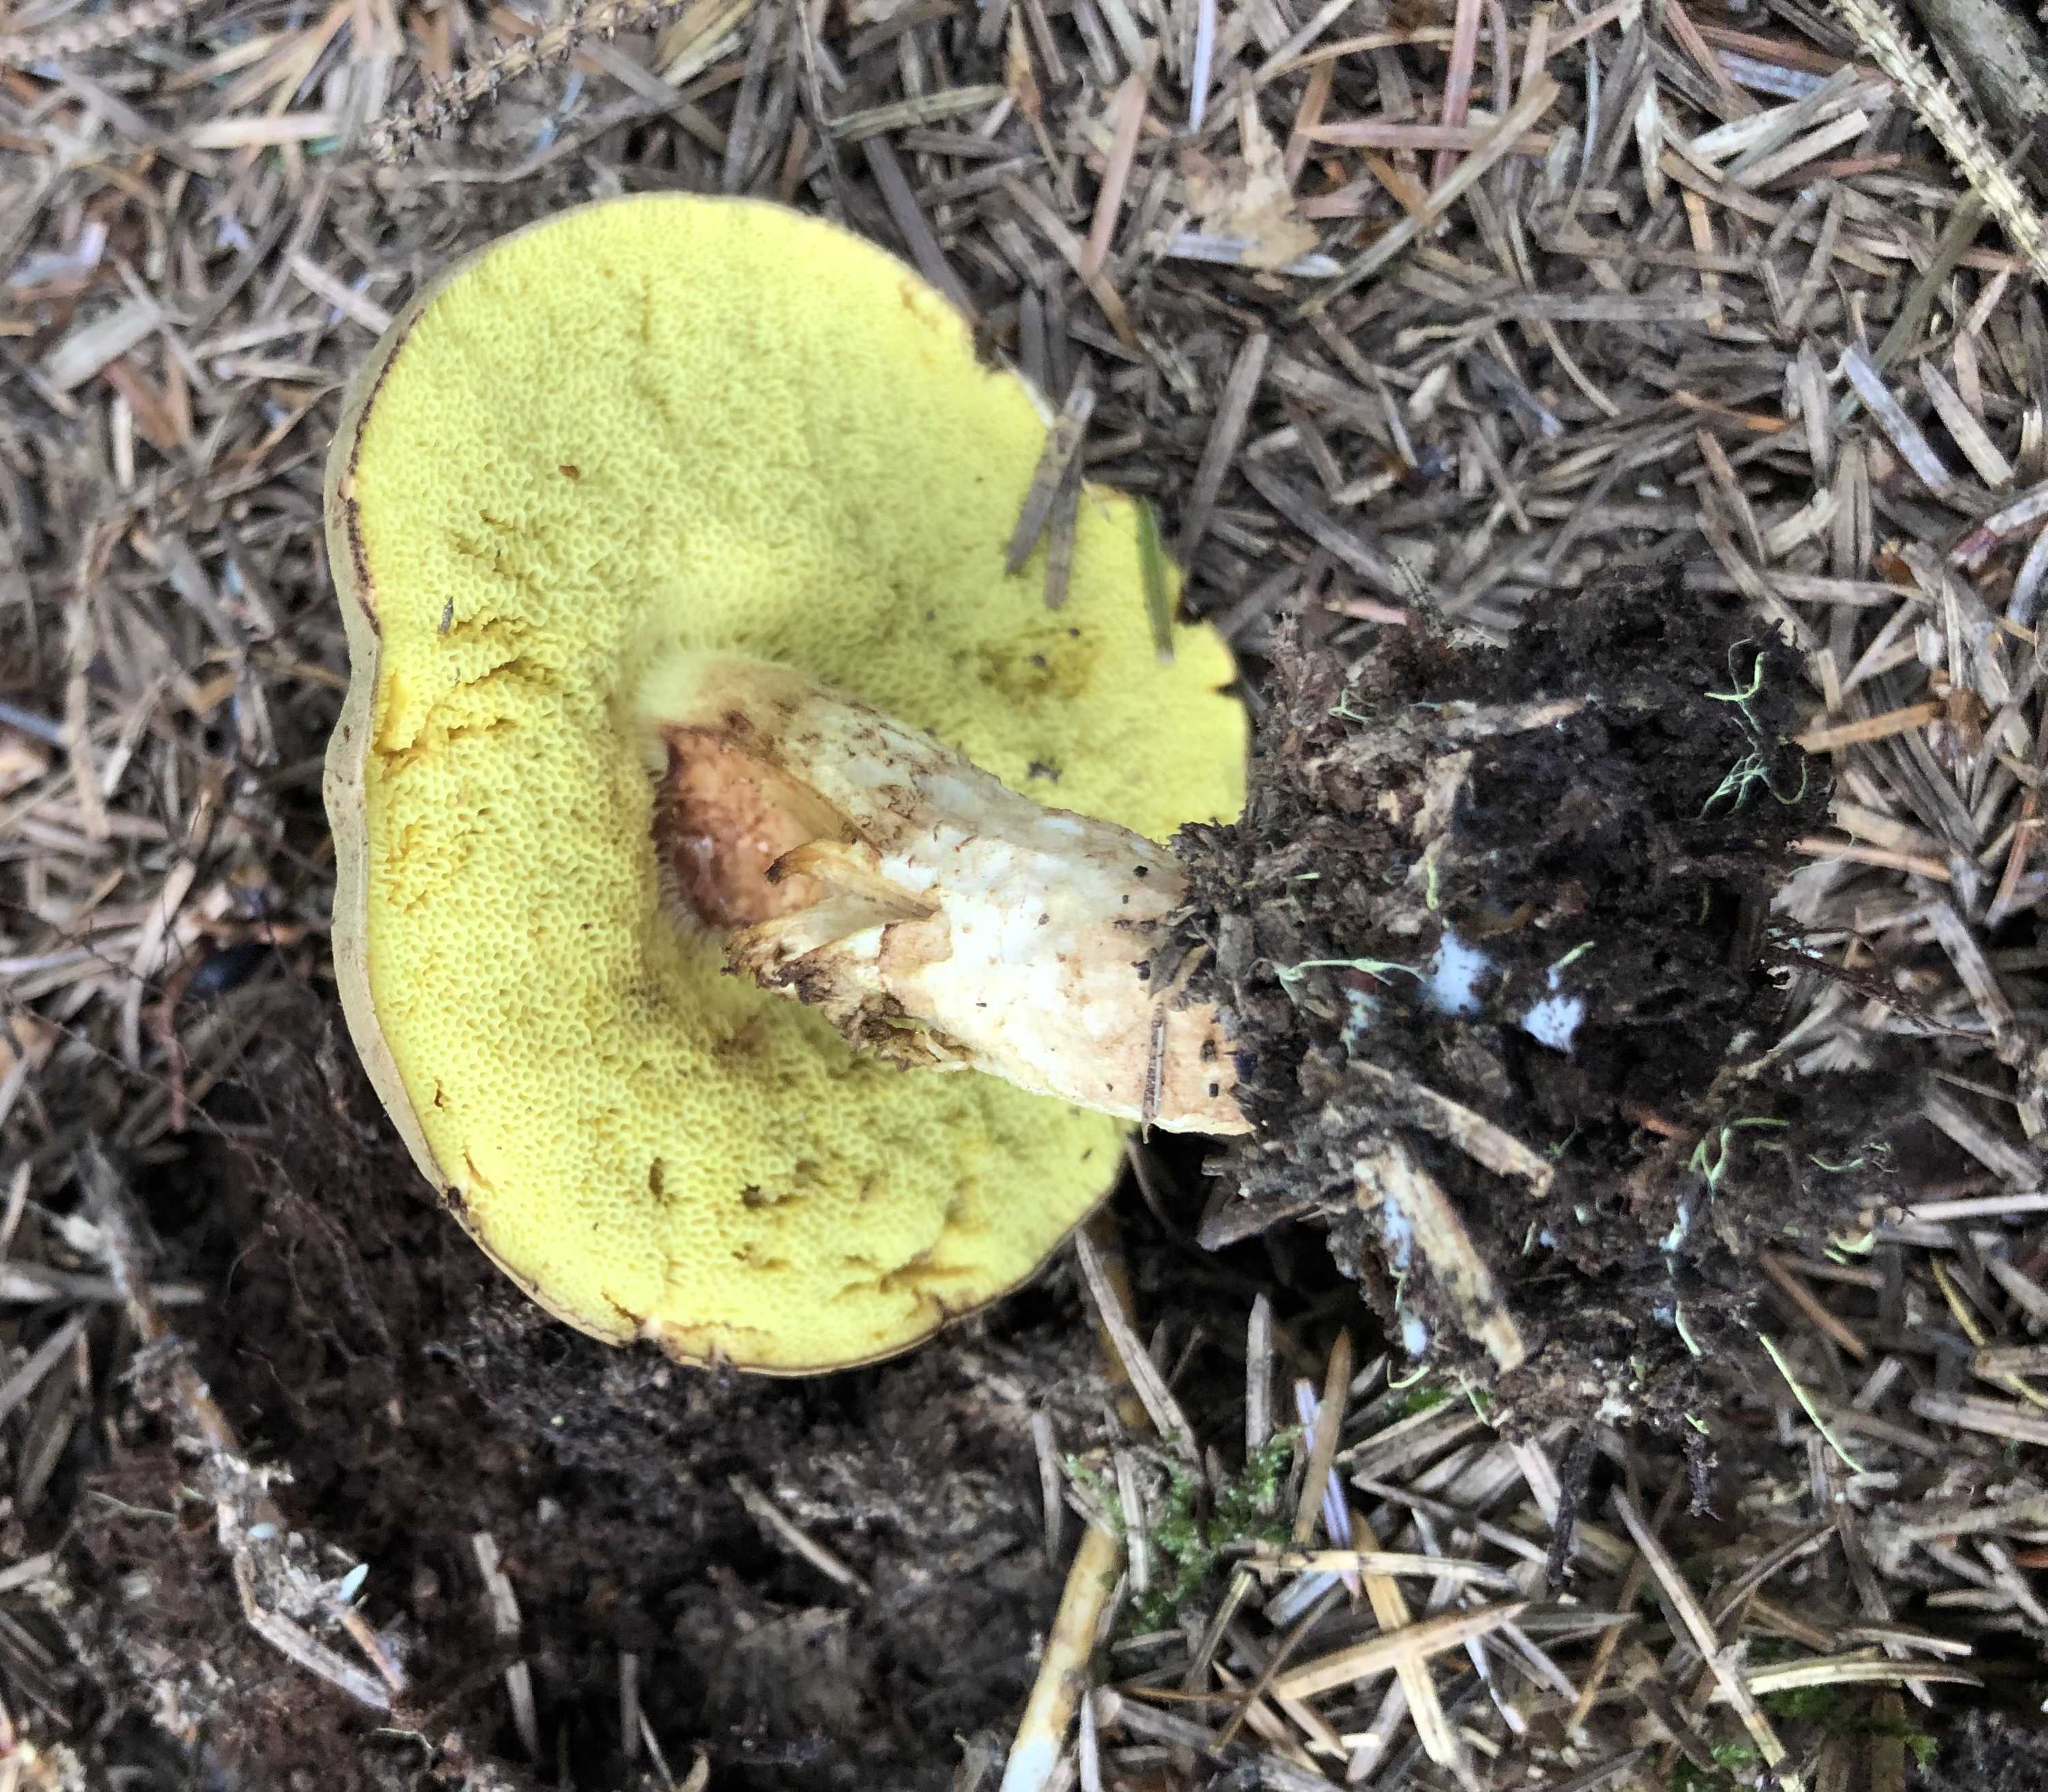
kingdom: Fungi
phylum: Basidiomycota
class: Agaricomycetes
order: Boletales
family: Boletaceae
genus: Xerocomus
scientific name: Xerocomus
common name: filtrørhat
